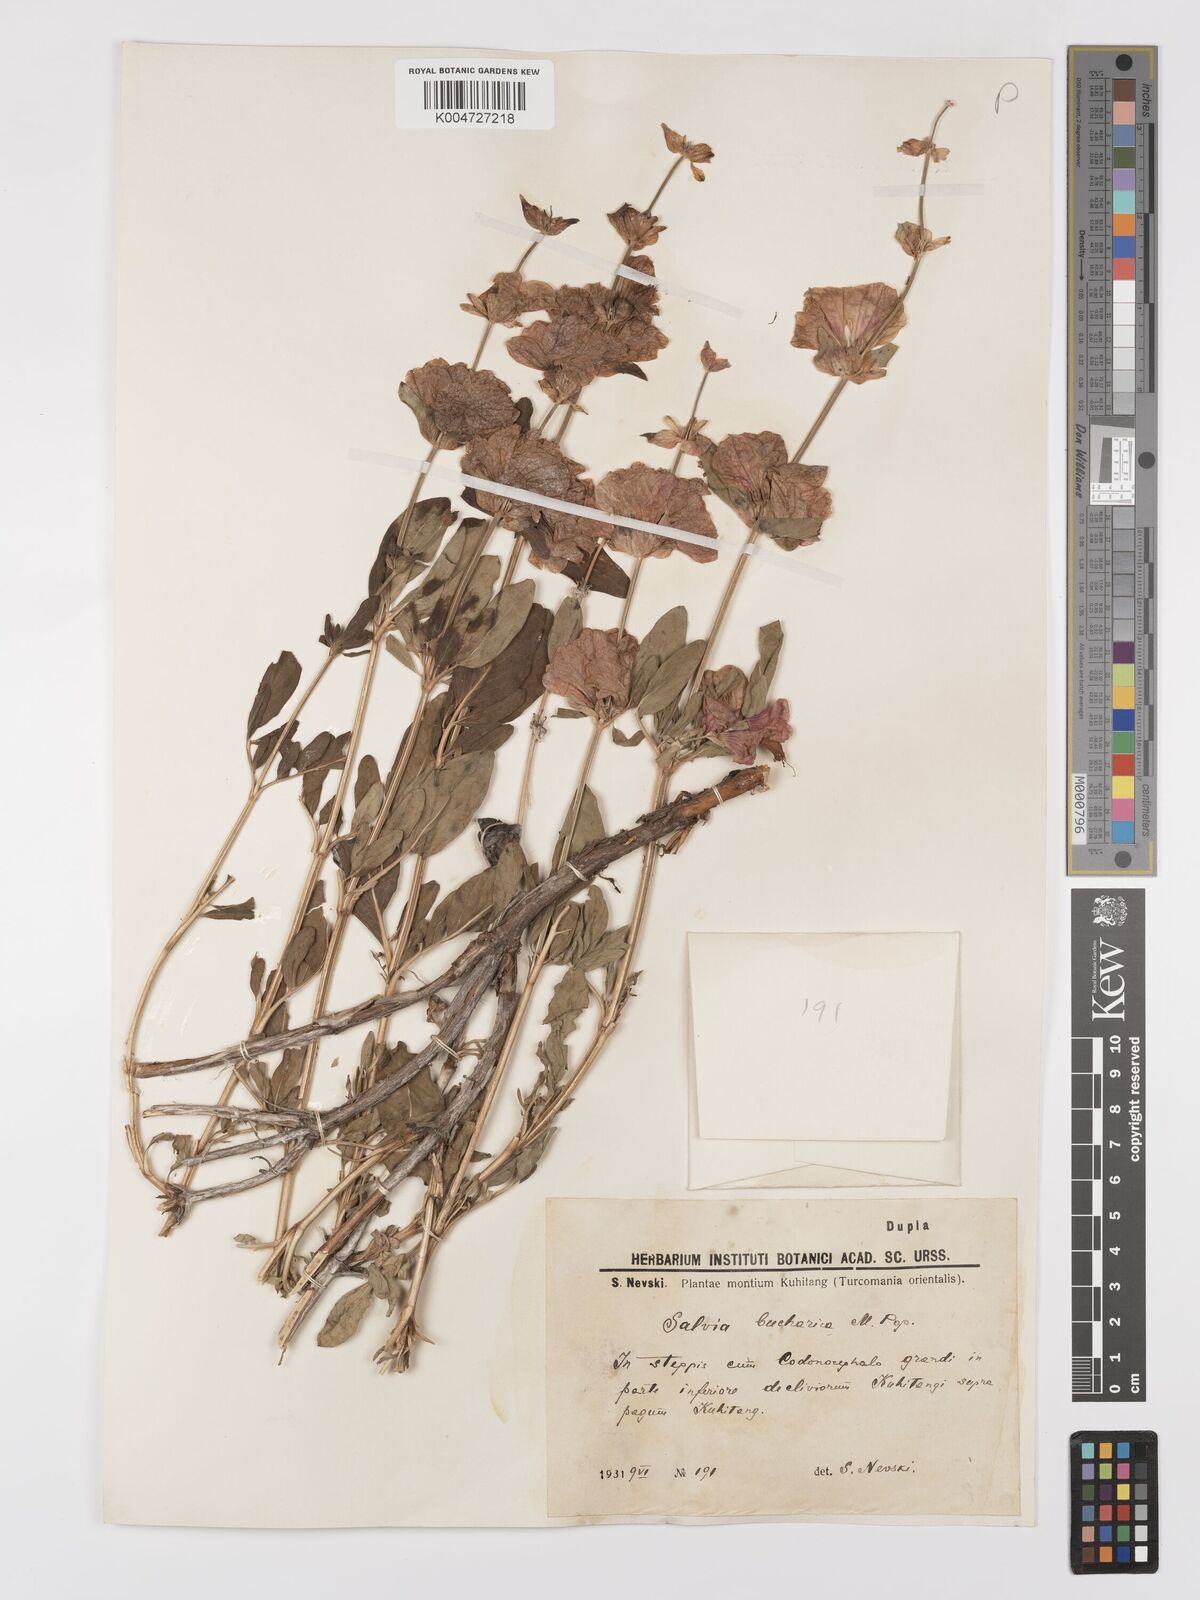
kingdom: Plantae
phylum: Tracheophyta
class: Magnoliopsida
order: Lamiales
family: Lamiaceae
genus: Salvia
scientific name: Salvia bucharica
